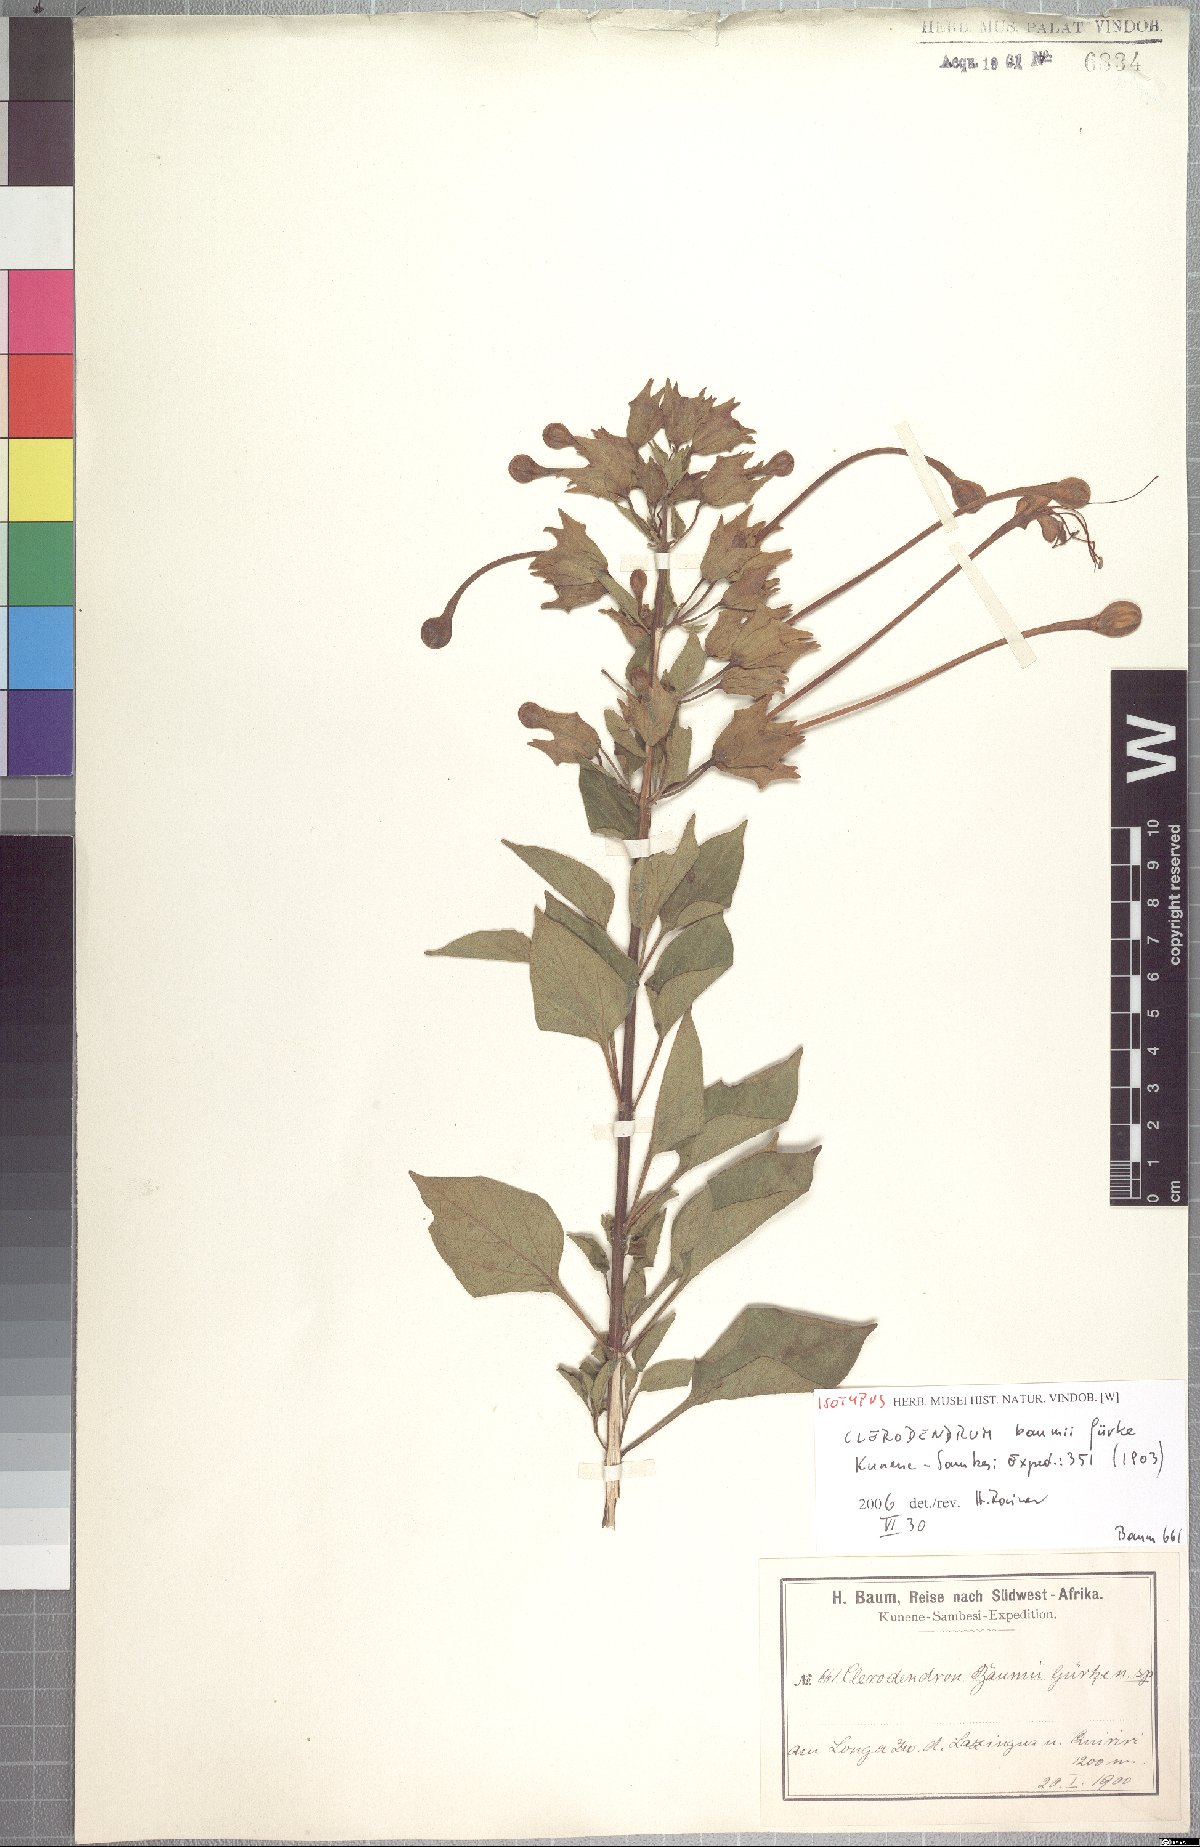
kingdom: Plantae
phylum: Tracheophyta
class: Magnoliopsida
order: Lamiales
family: Lamiaceae
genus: Clerodendrum
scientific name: Clerodendrum baumii
